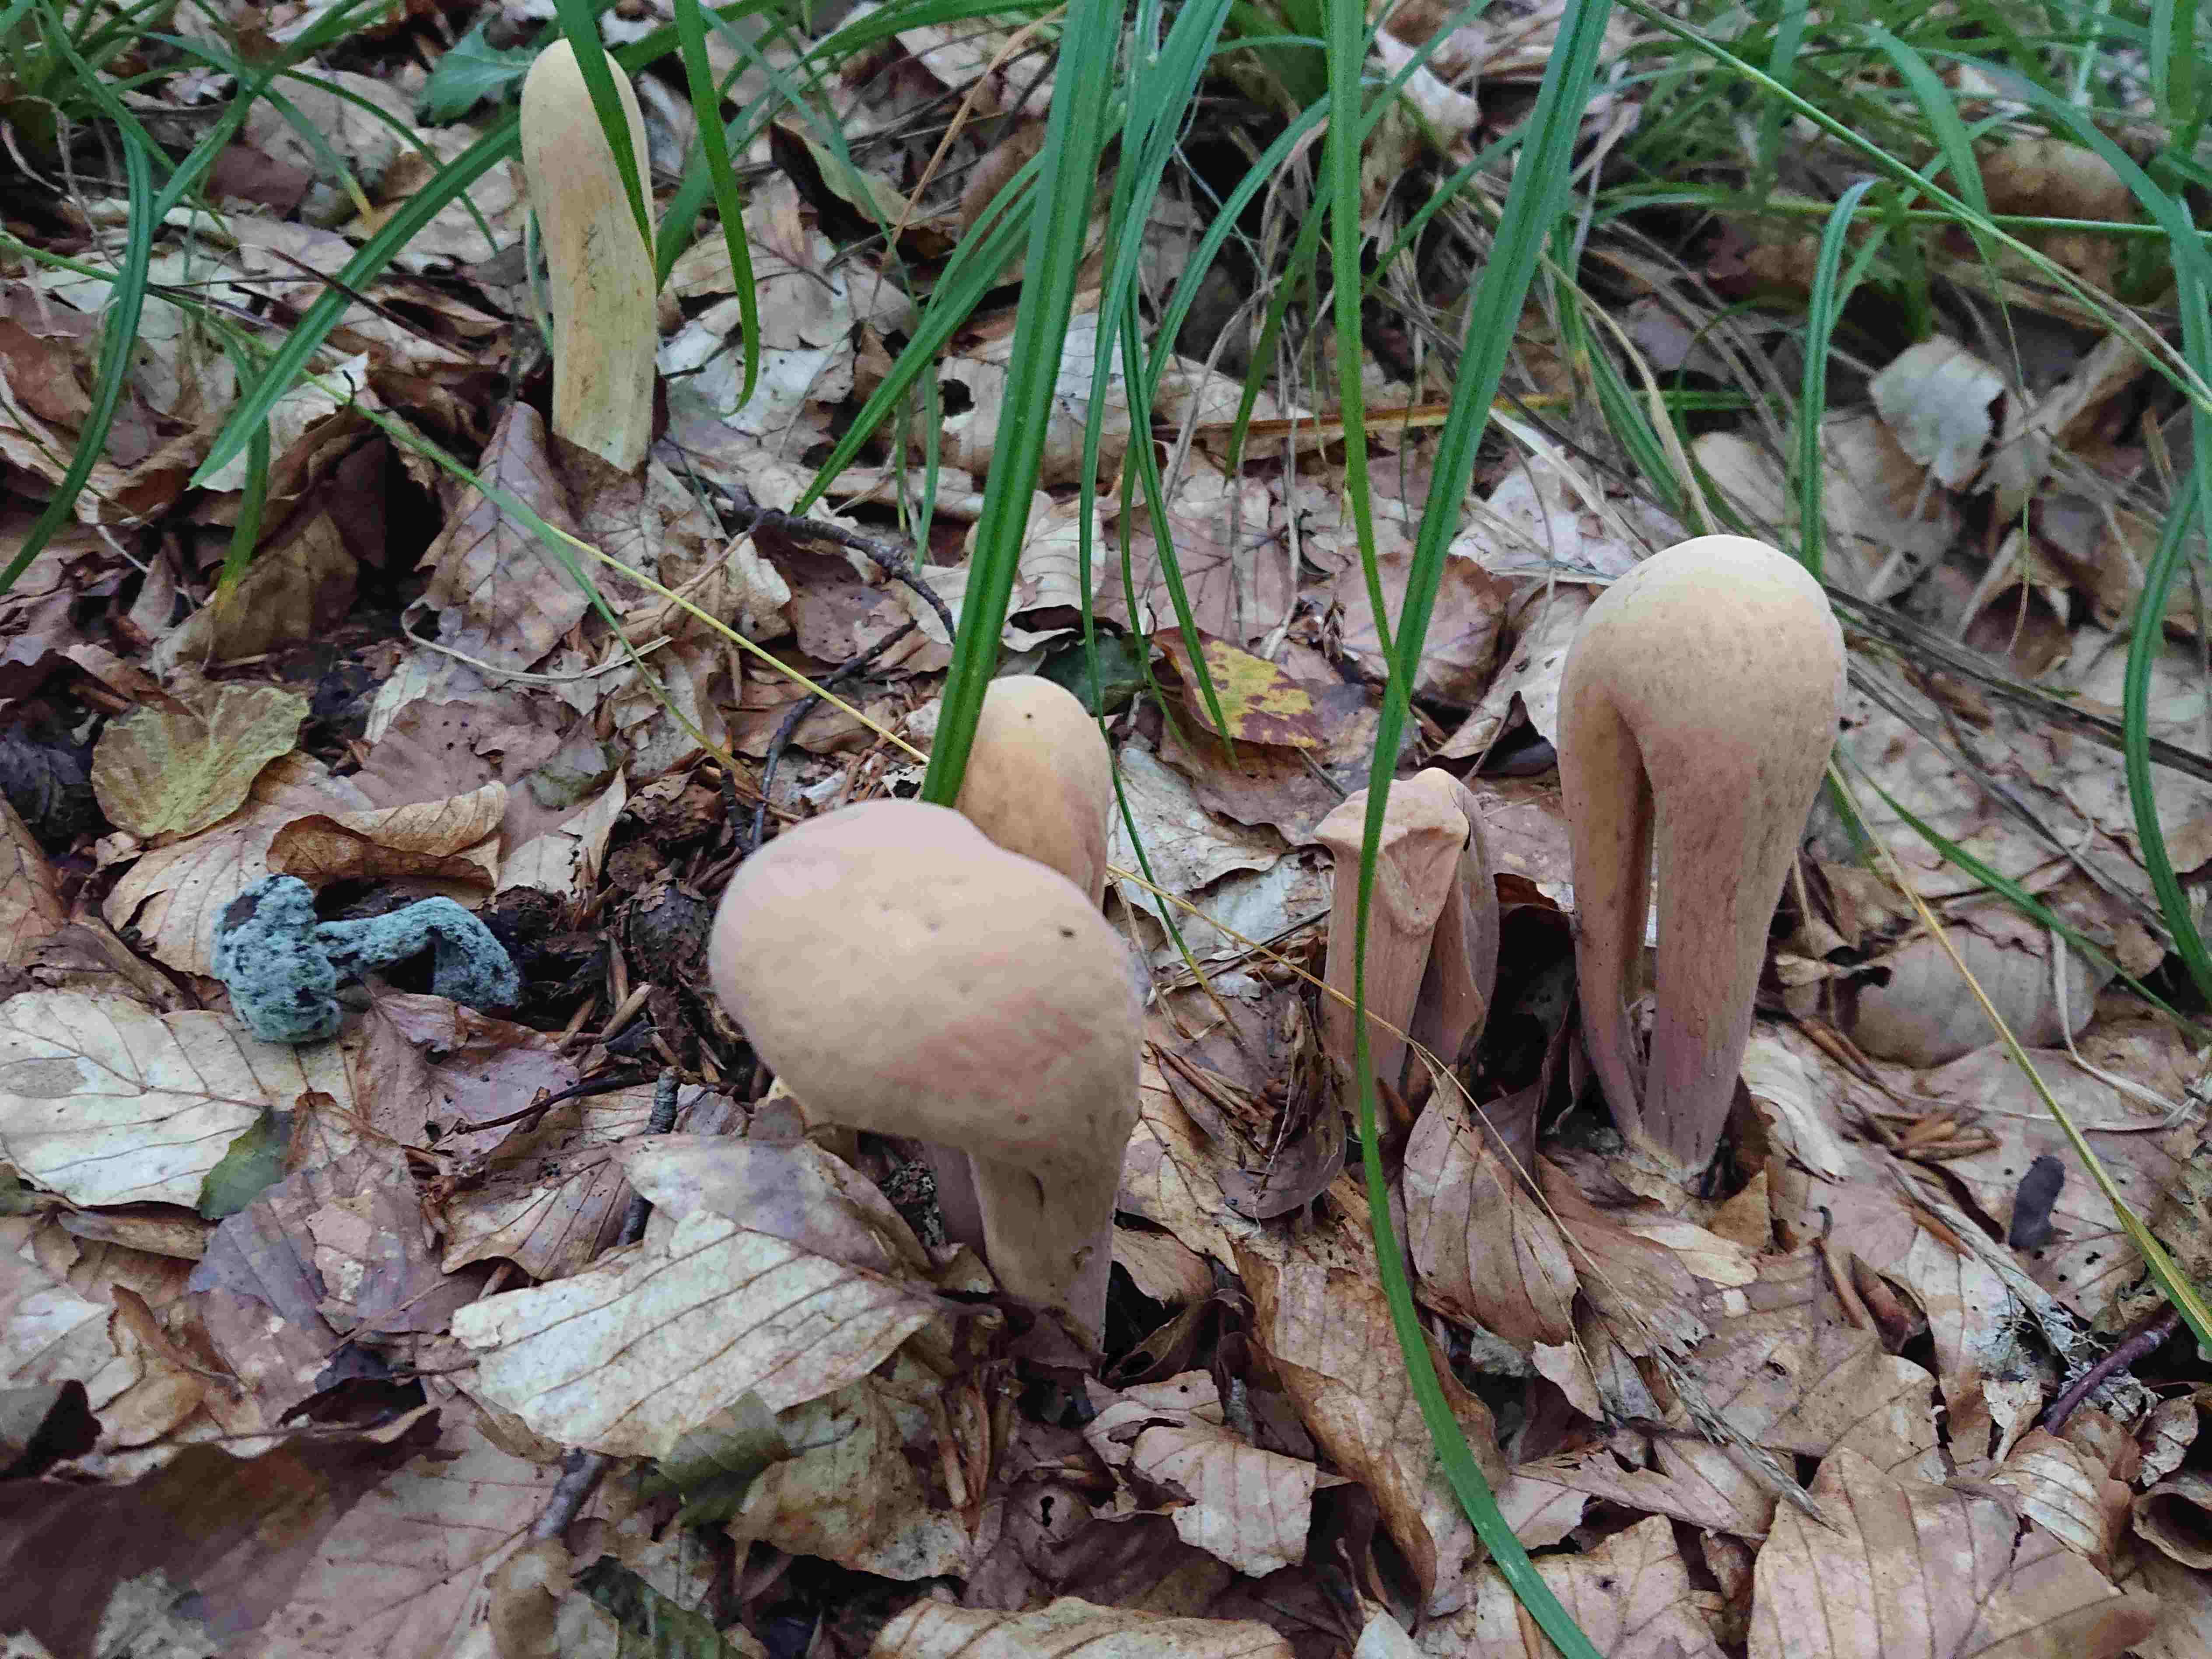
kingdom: Fungi
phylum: Basidiomycota
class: Agaricomycetes
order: Gomphales
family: Clavariadelphaceae
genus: Clavariadelphus
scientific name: Clavariadelphus pistillaris
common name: herkules-kæmpekølle
